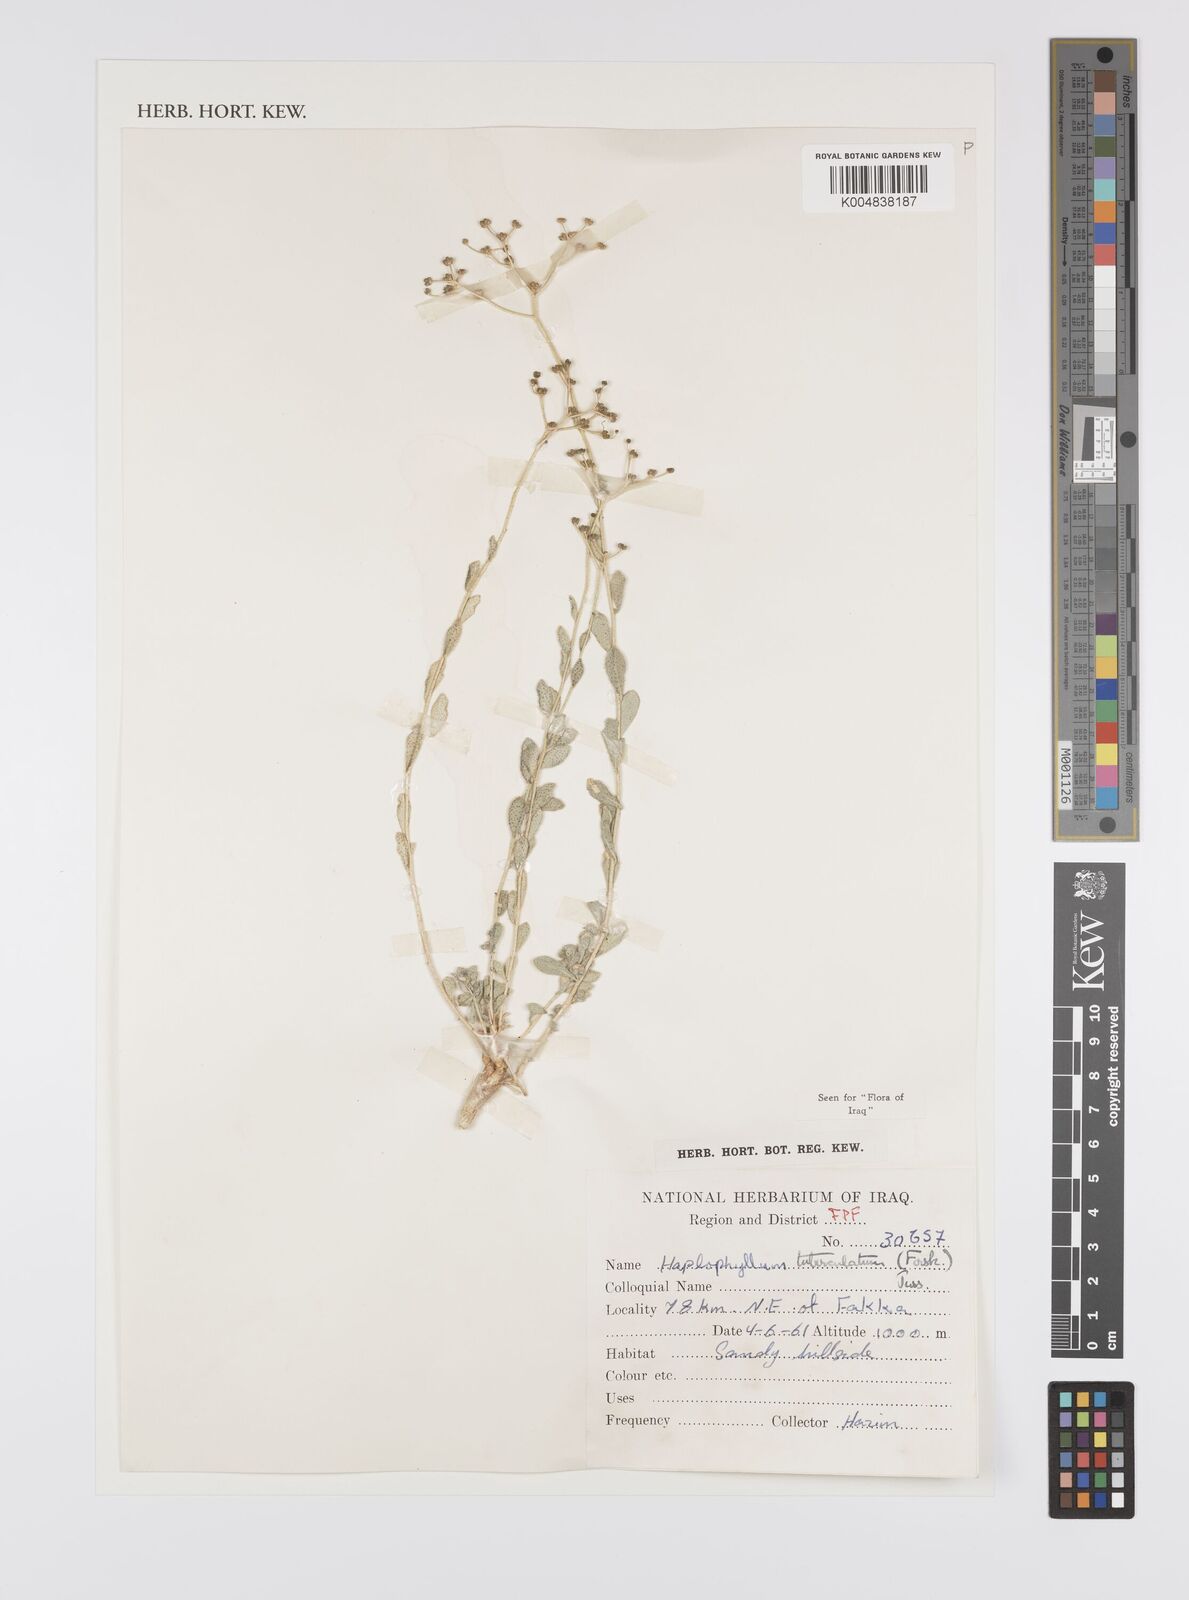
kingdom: Plantae
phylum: Tracheophyta
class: Magnoliopsida
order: Sapindales
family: Rutaceae
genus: Haplophyllum
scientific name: Haplophyllum tuberculatum
